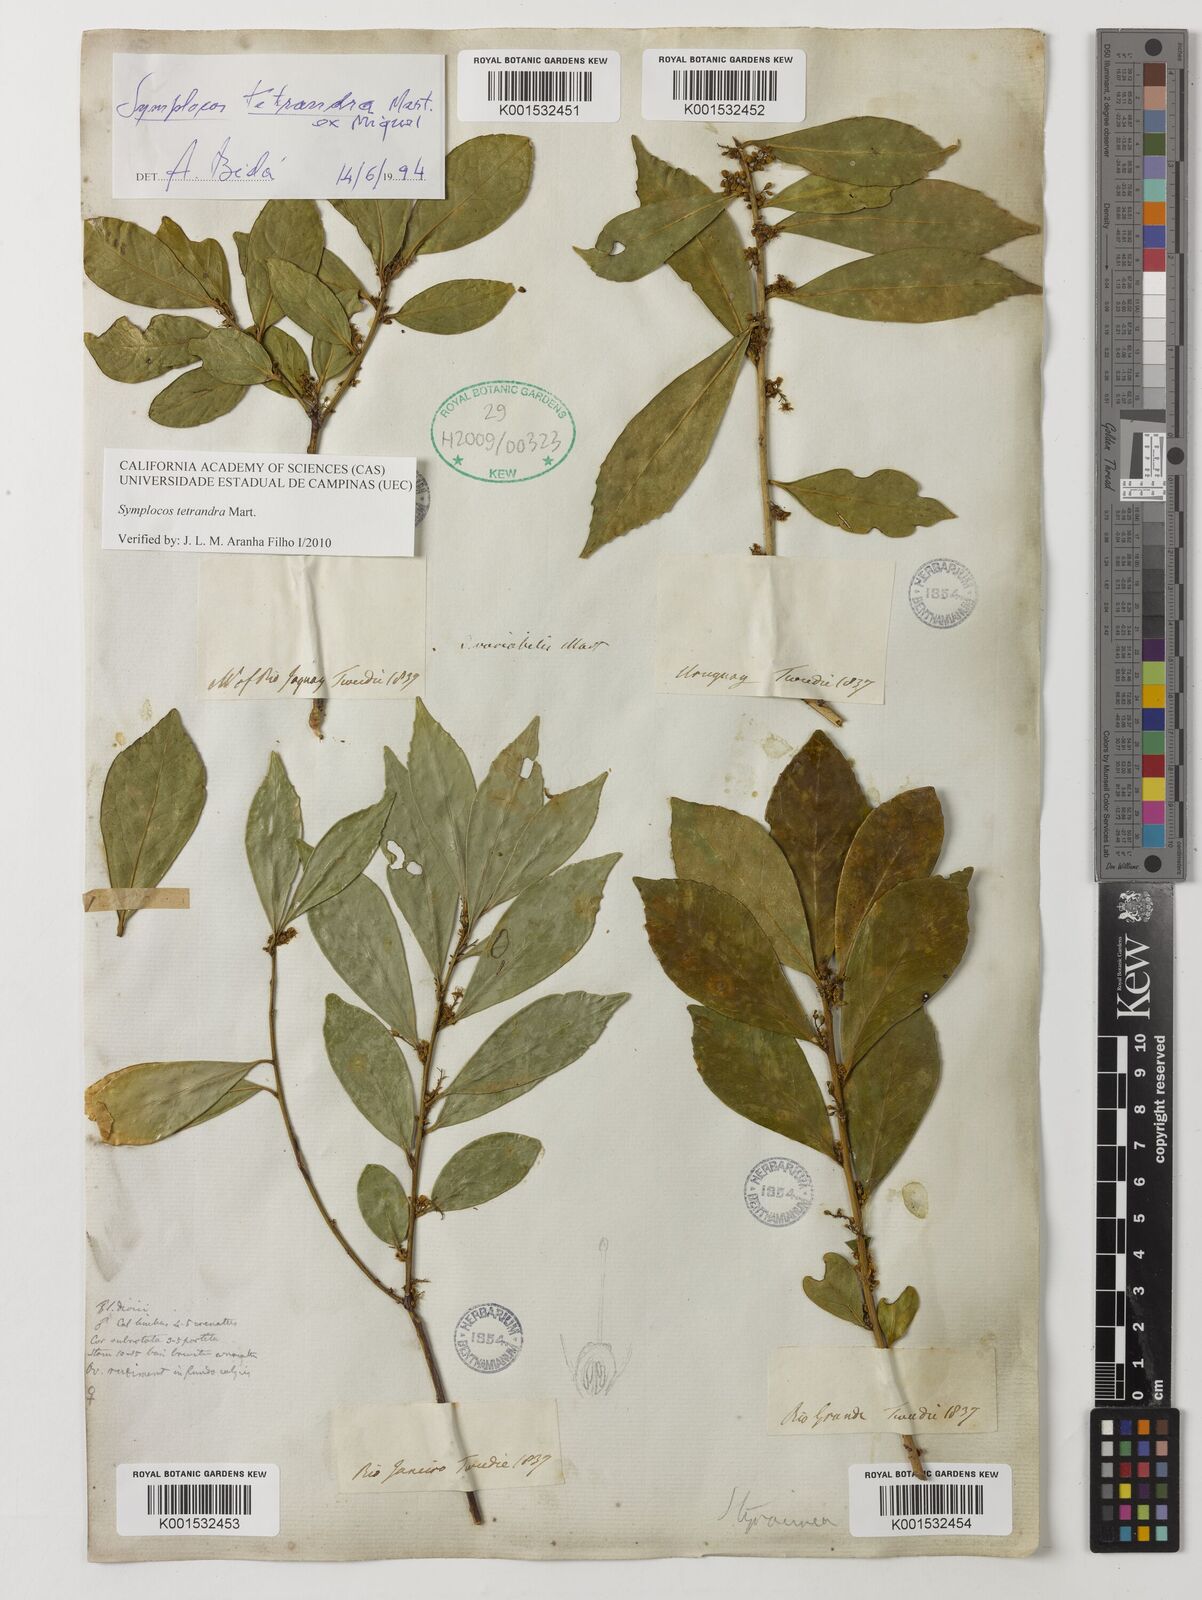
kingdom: Plantae
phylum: Tracheophyta
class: Magnoliopsida
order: Ericales
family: Symplocaceae
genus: Symplocos
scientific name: Symplocos tetrandra
